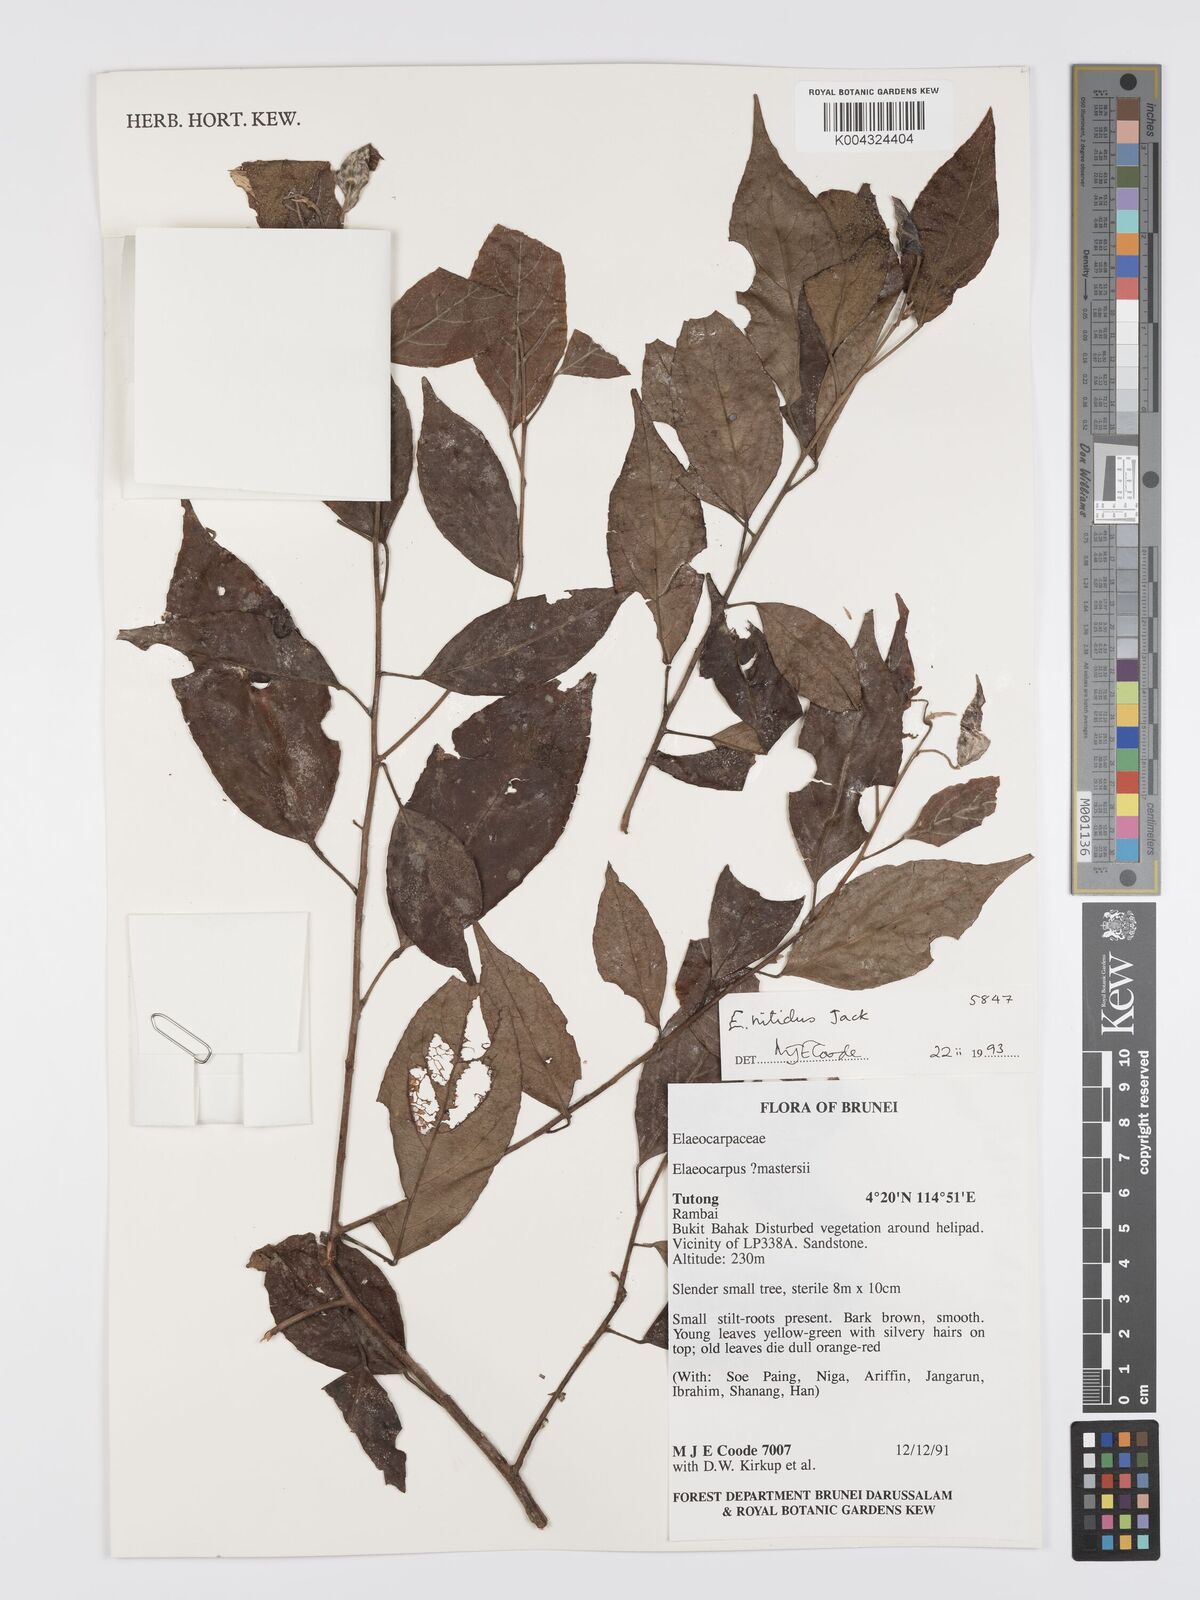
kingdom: Plantae
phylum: Tracheophyta
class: Magnoliopsida
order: Oxalidales
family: Elaeocarpaceae
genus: Elaeocarpus
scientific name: Elaeocarpus nitidus
